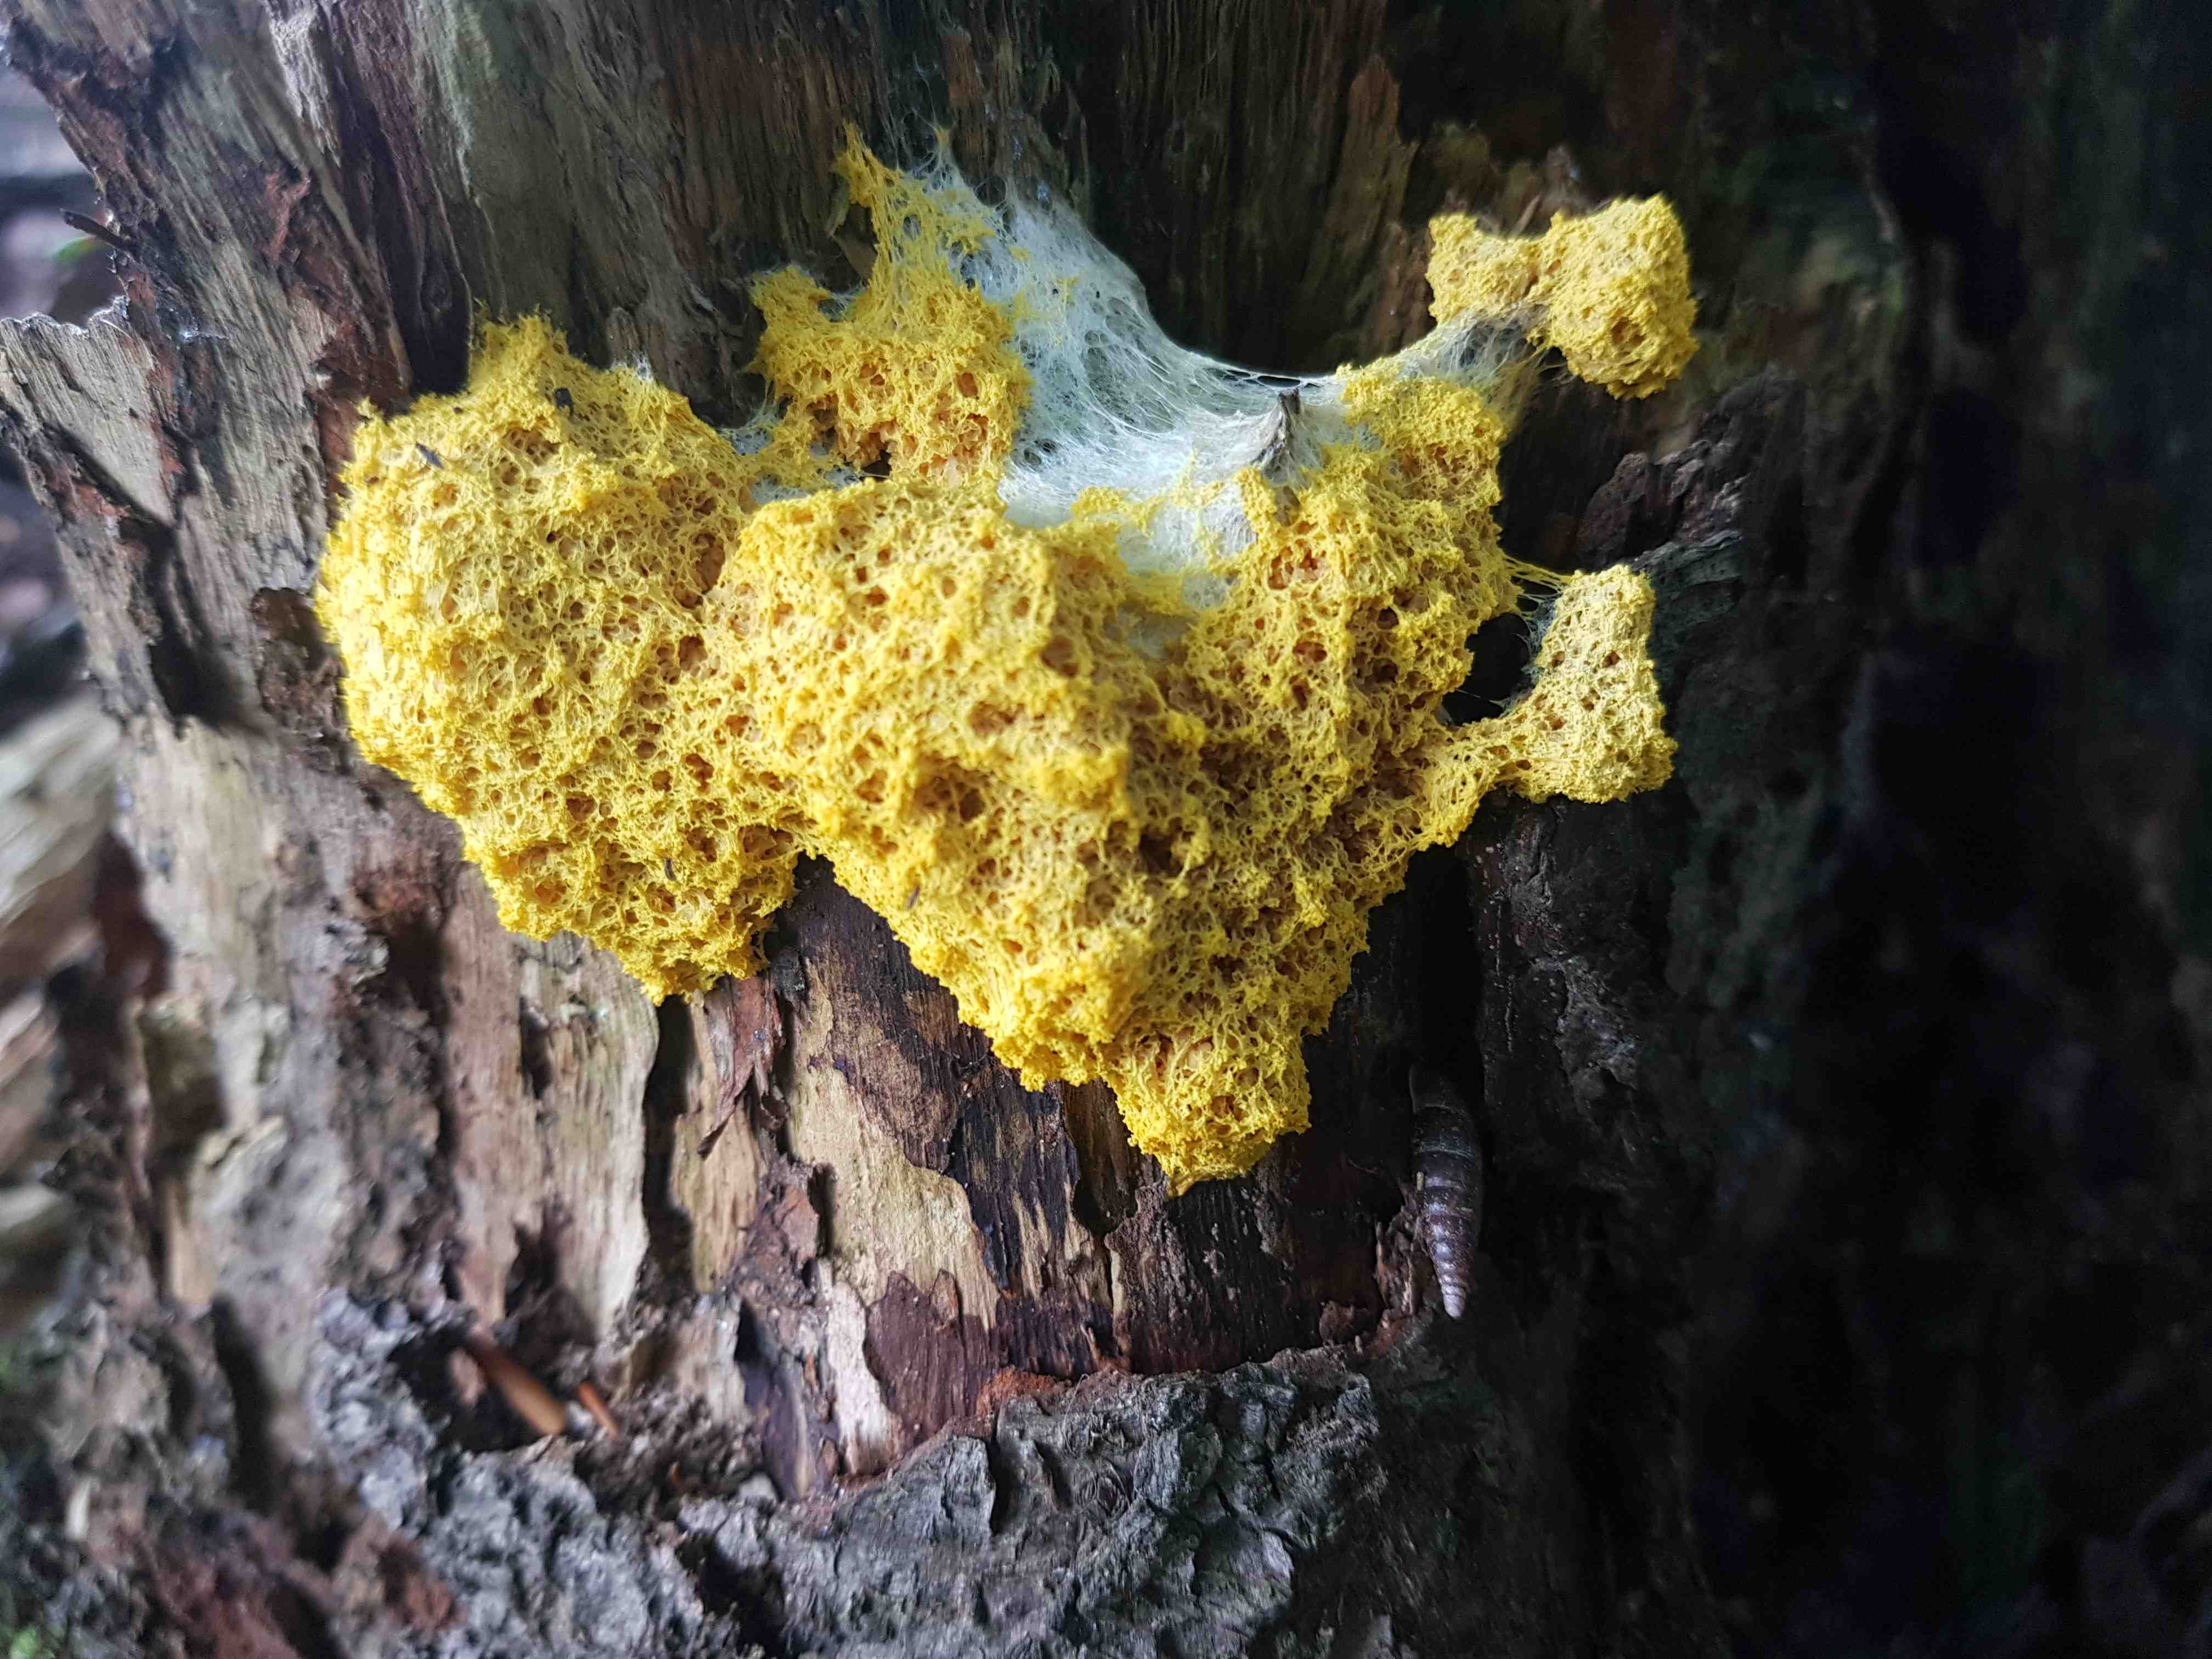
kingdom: Protozoa
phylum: Mycetozoa
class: Myxomycetes
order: Physarales
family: Physaraceae
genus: Fuligo
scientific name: Fuligo septica
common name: gul troldsmør
